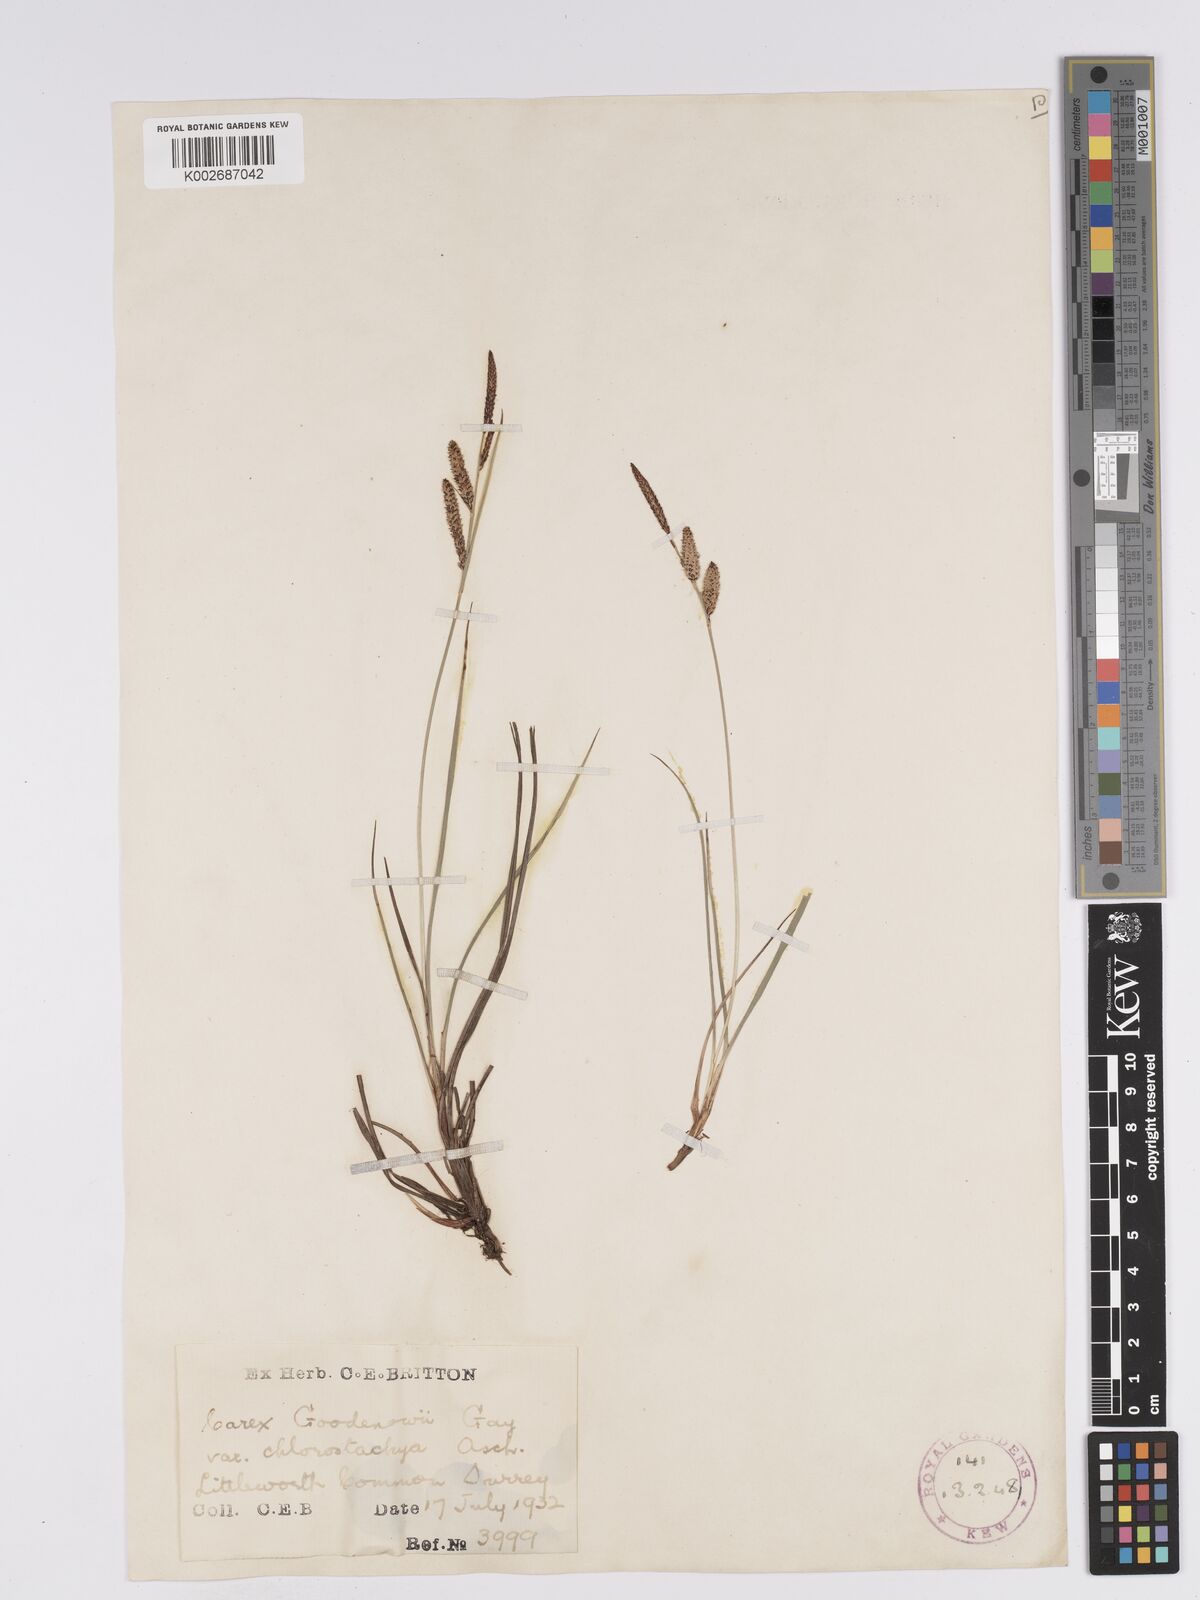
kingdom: Plantae
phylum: Tracheophyta
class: Liliopsida
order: Poales
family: Cyperaceae
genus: Carex
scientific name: Carex nigra
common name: Common sedge
